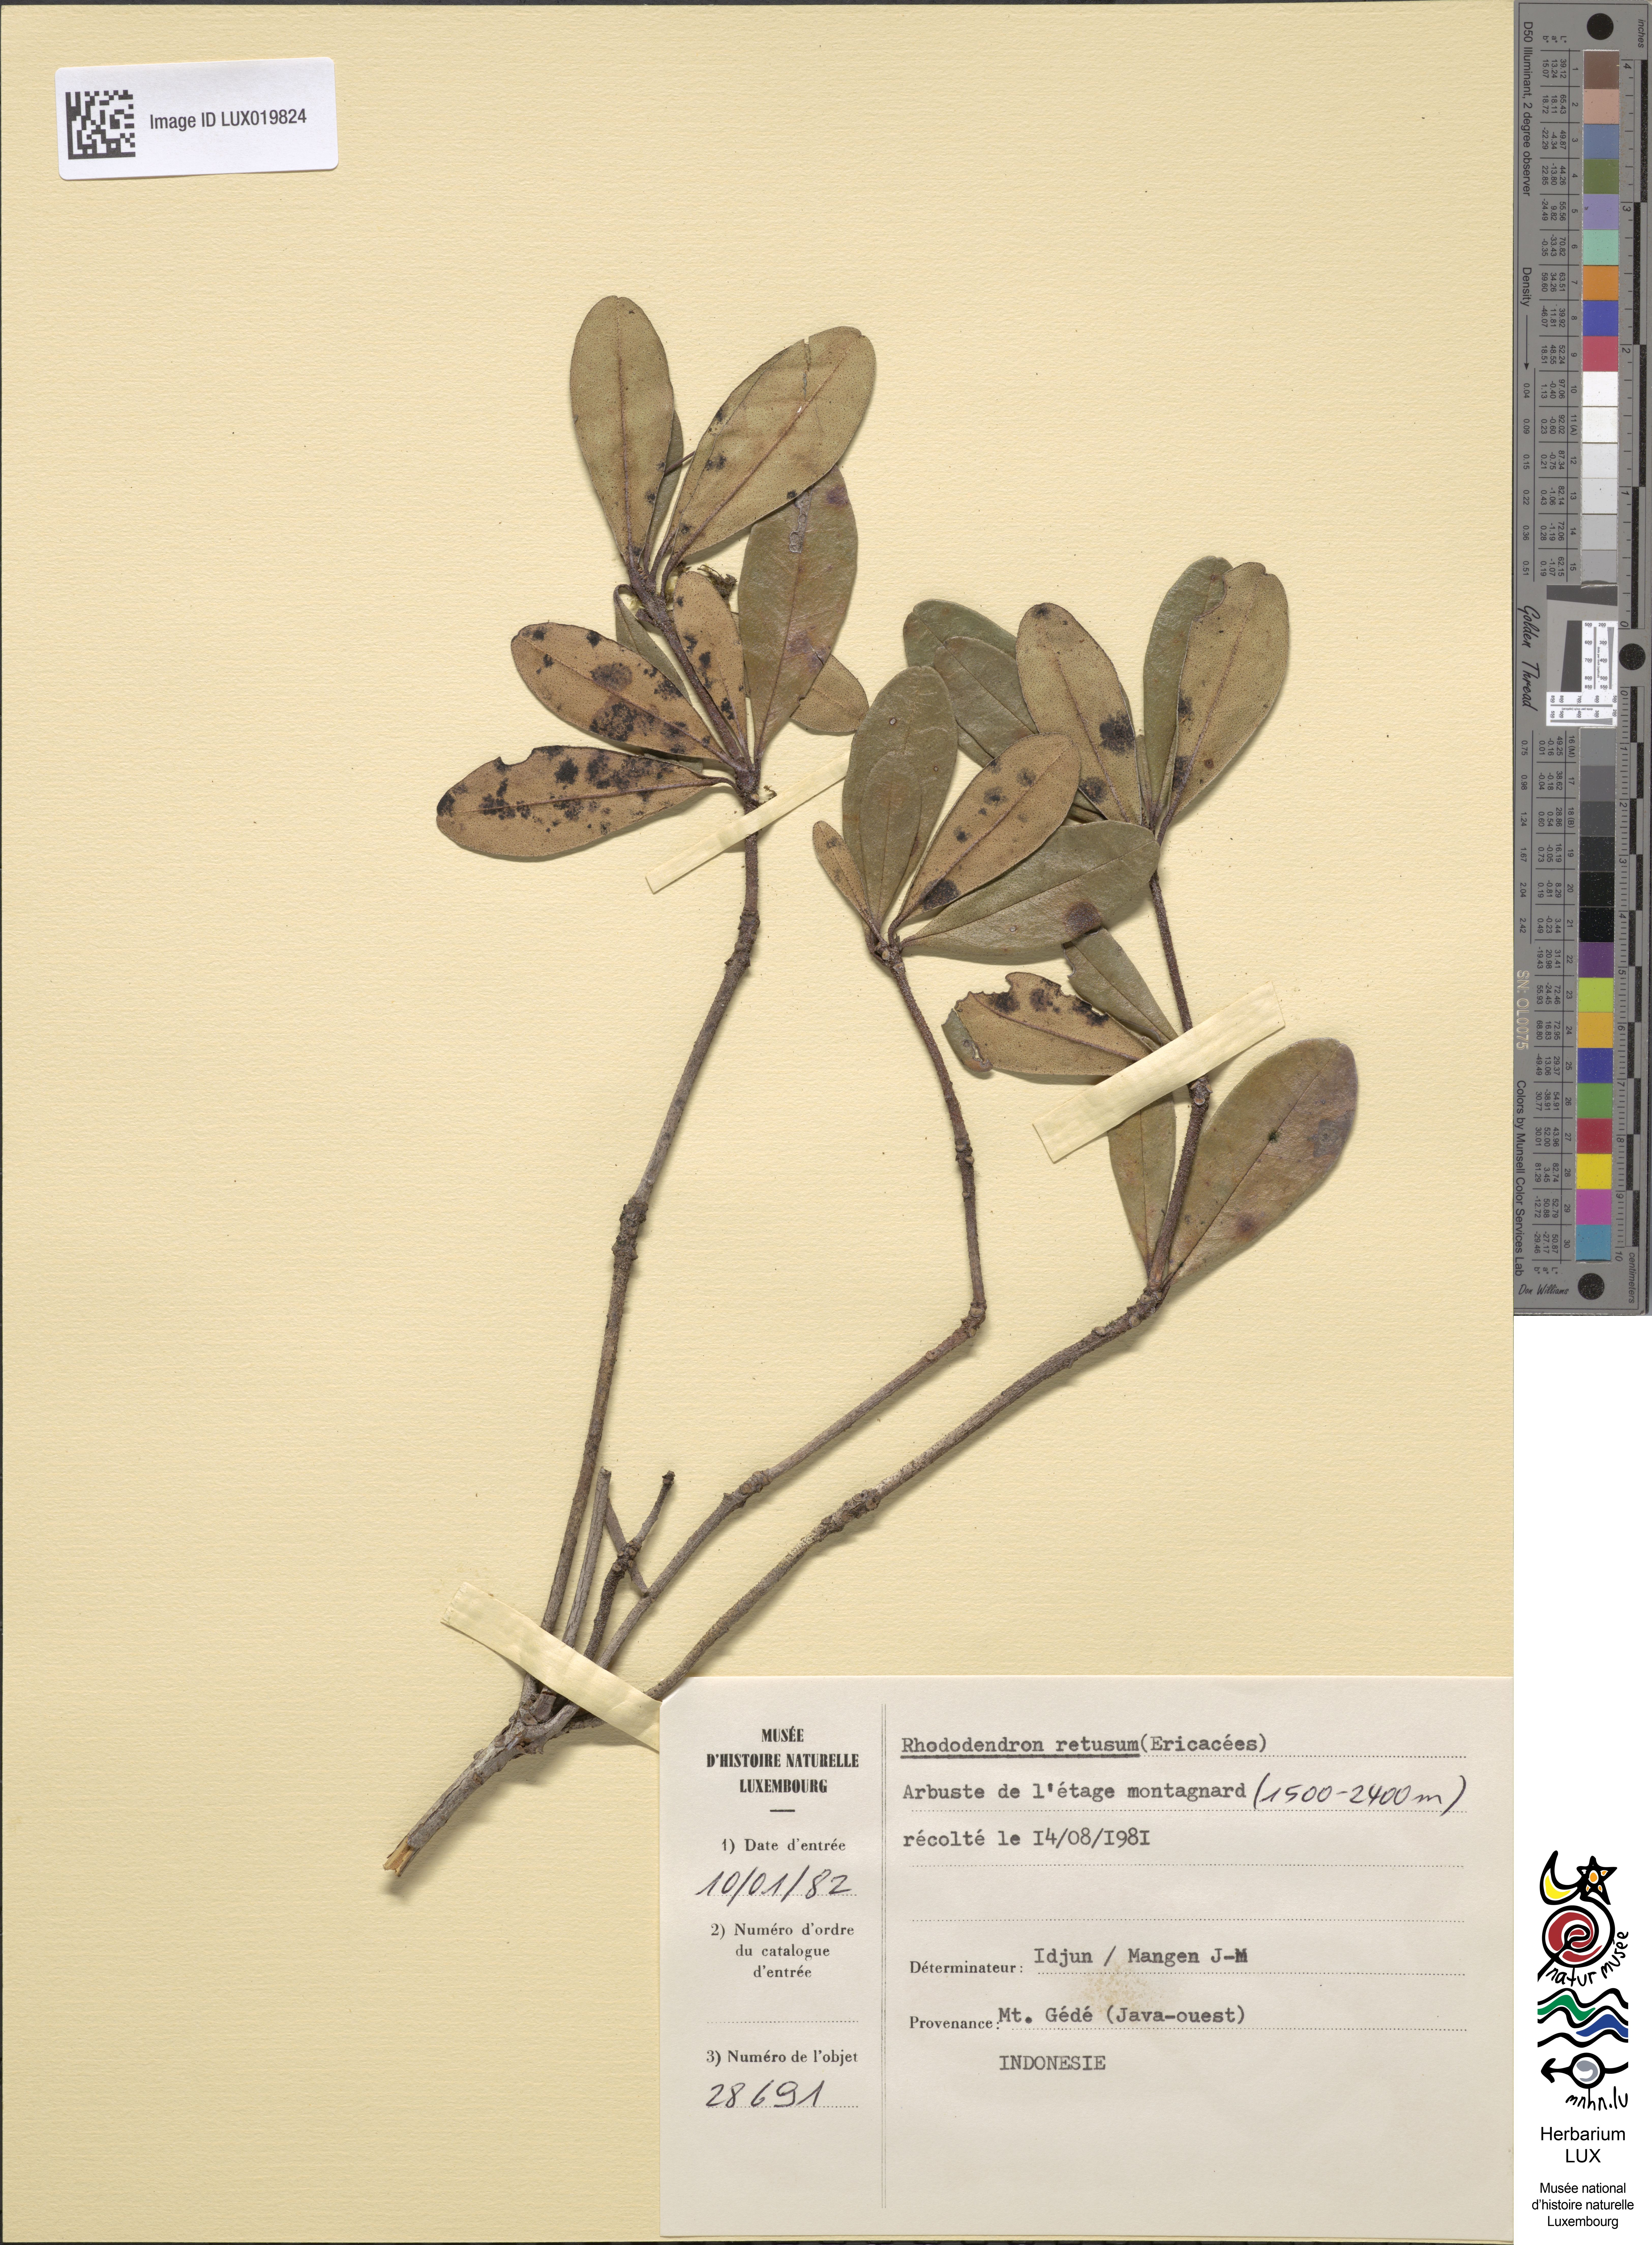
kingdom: Plantae
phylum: Tracheophyta
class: Magnoliopsida
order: Ericales
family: Ericaceae
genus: Rhododendron
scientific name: Rhododendron retusum
